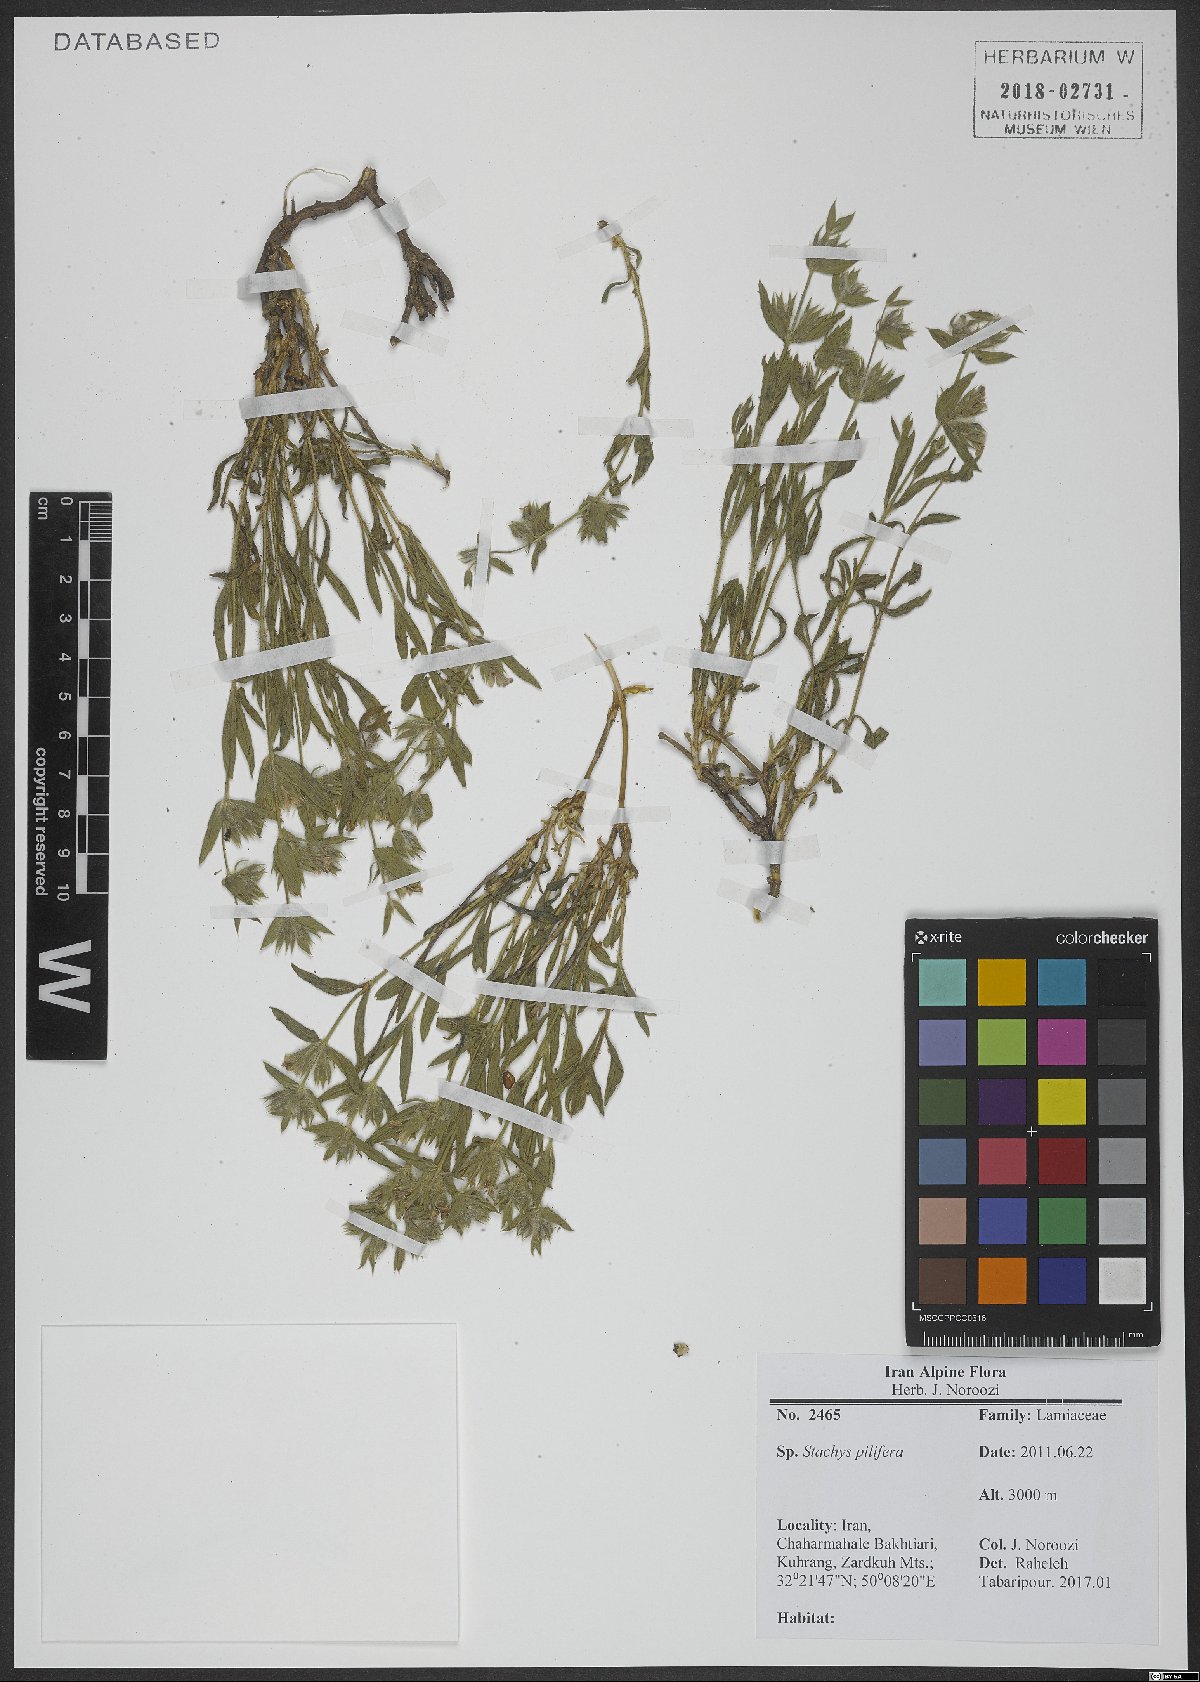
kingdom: Plantae
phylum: Tracheophyta
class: Magnoliopsida
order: Lamiales
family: Lamiaceae
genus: Stachys
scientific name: Stachys pilifera
